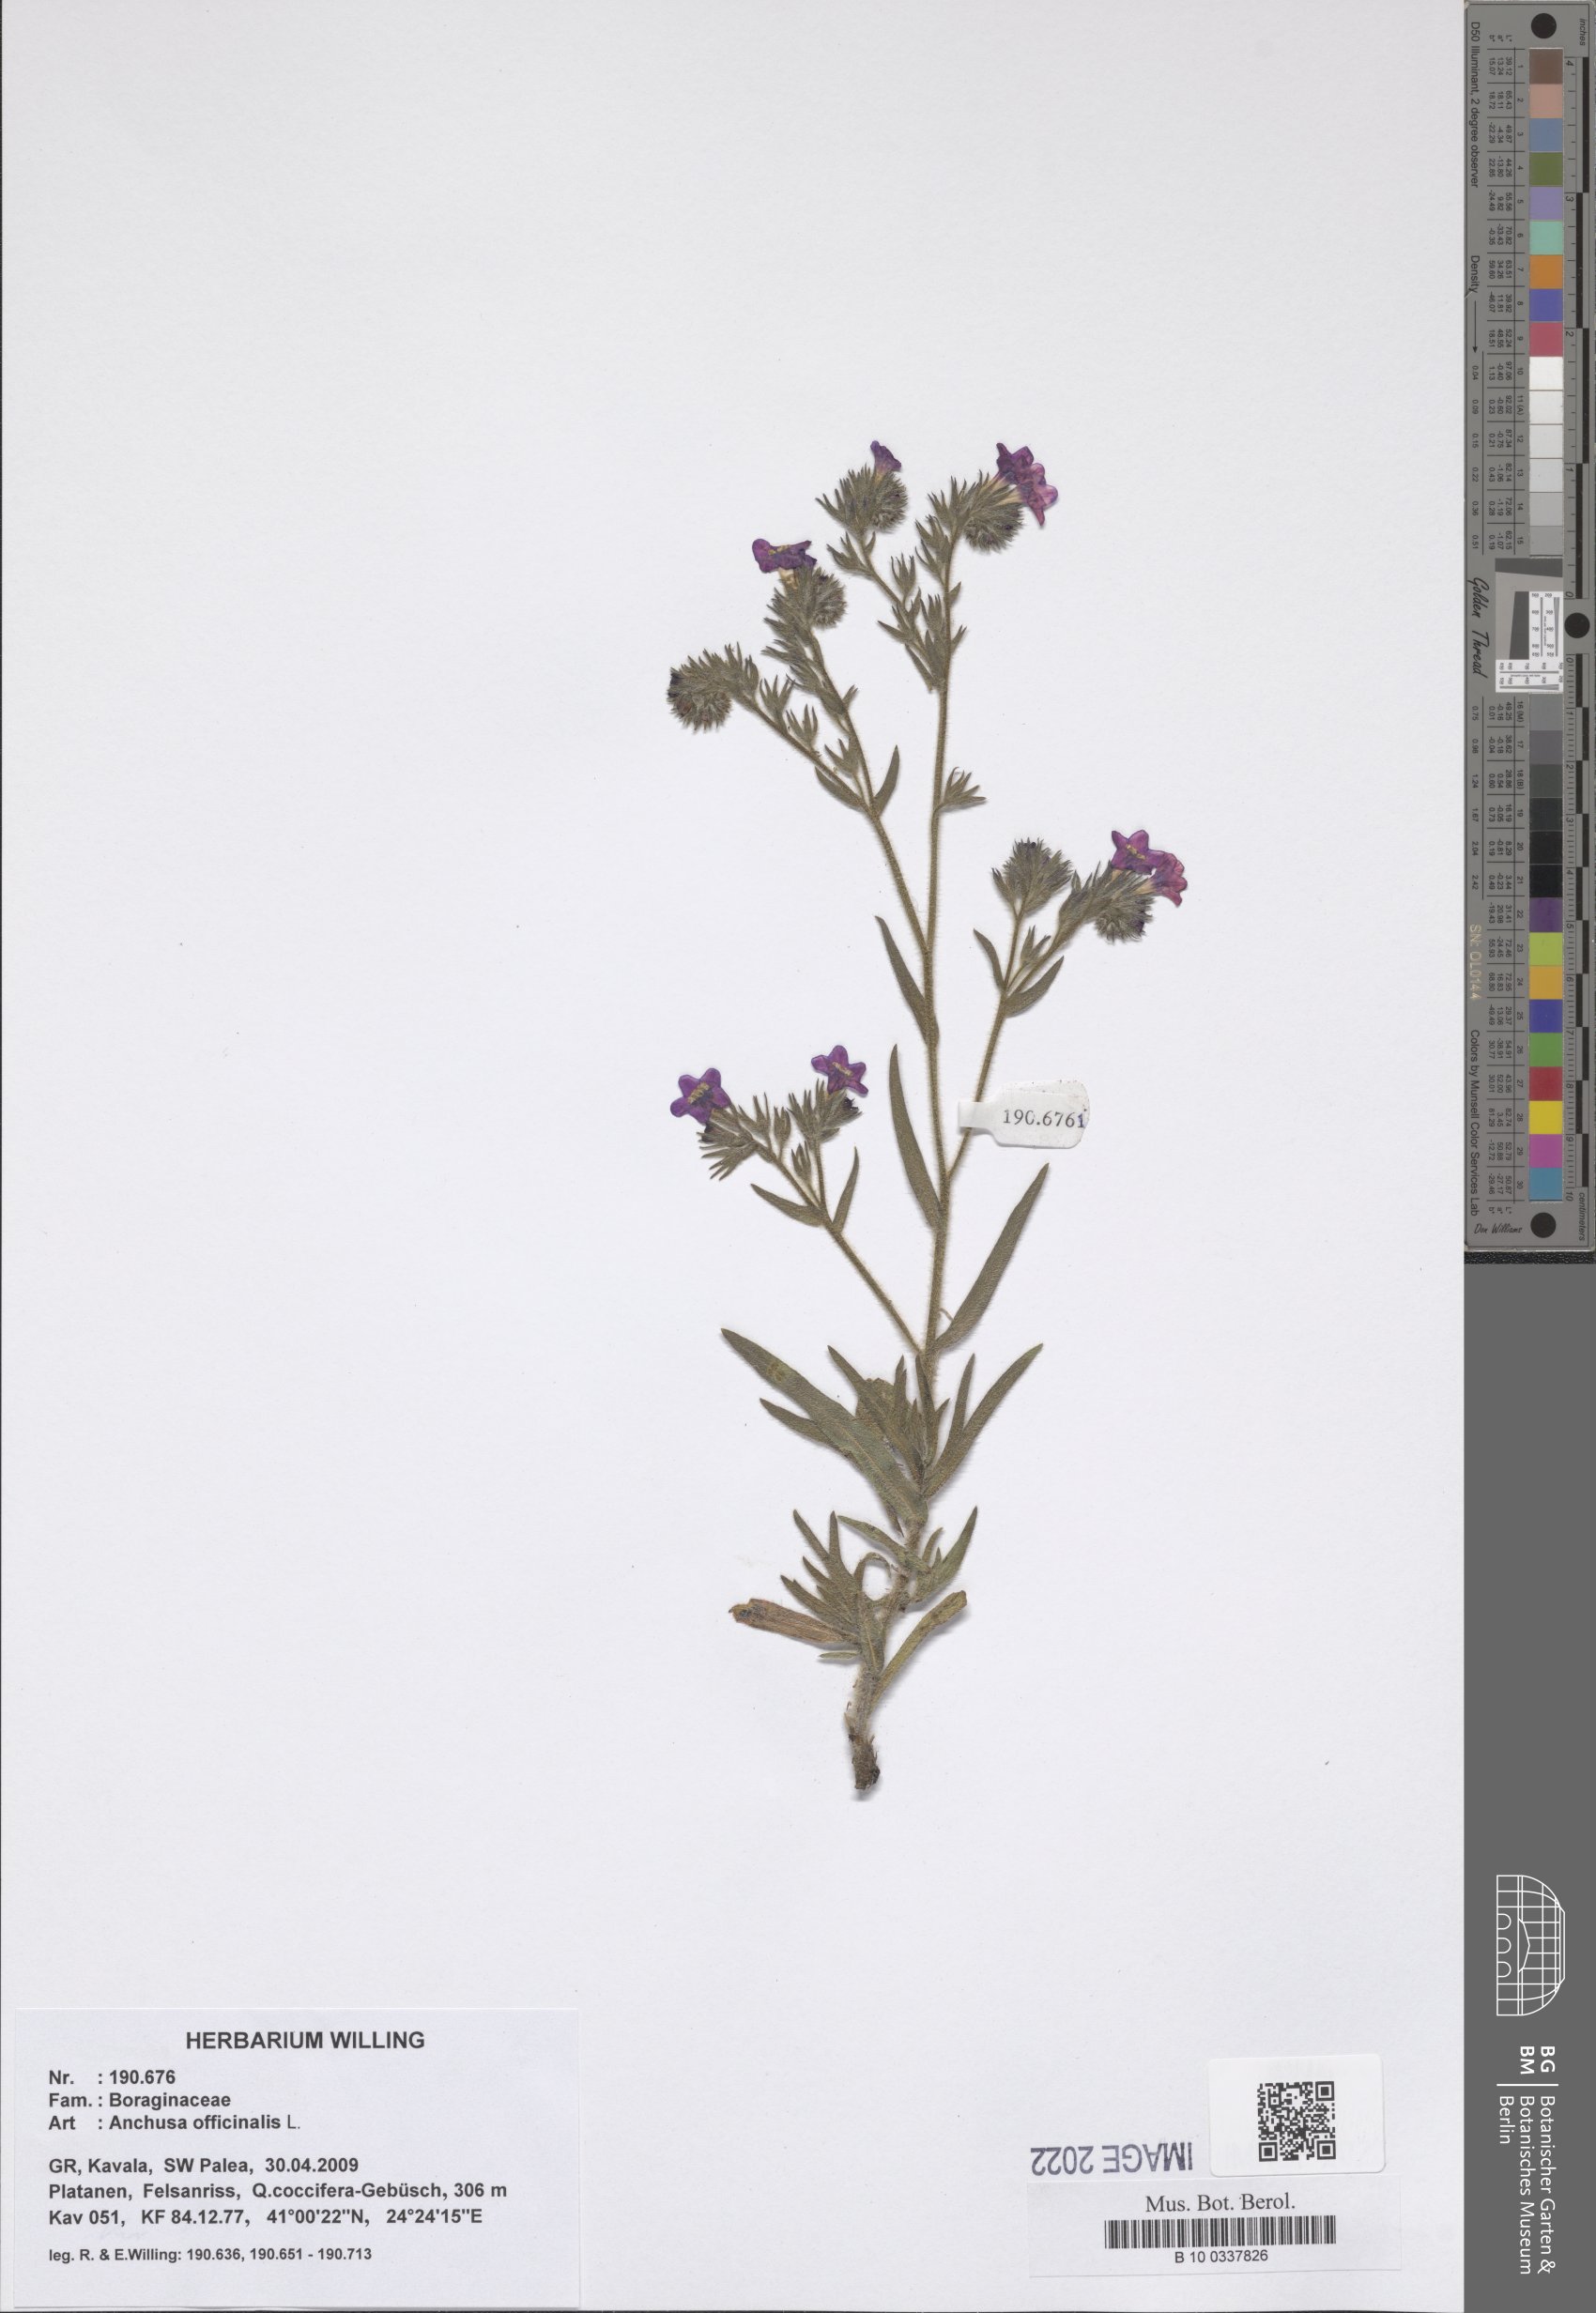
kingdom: Plantae
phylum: Tracheophyta
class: Magnoliopsida
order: Boraginales
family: Boraginaceae
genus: Anchusa
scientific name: Anchusa officinalis
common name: Alkanet
